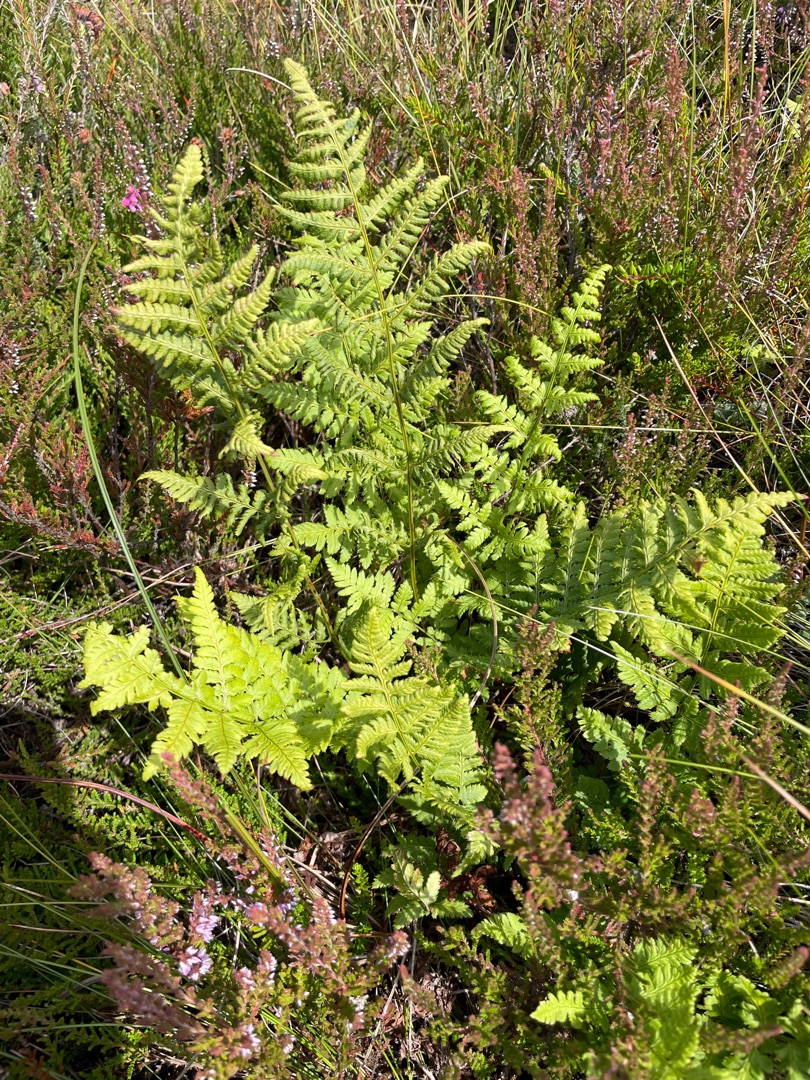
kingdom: Plantae
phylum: Tracheophyta
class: Polypodiopsida
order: Polypodiales
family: Dryopteridaceae
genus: Dryopteris
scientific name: Dryopteris carthusiana
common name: Smalbladet mangeløv
